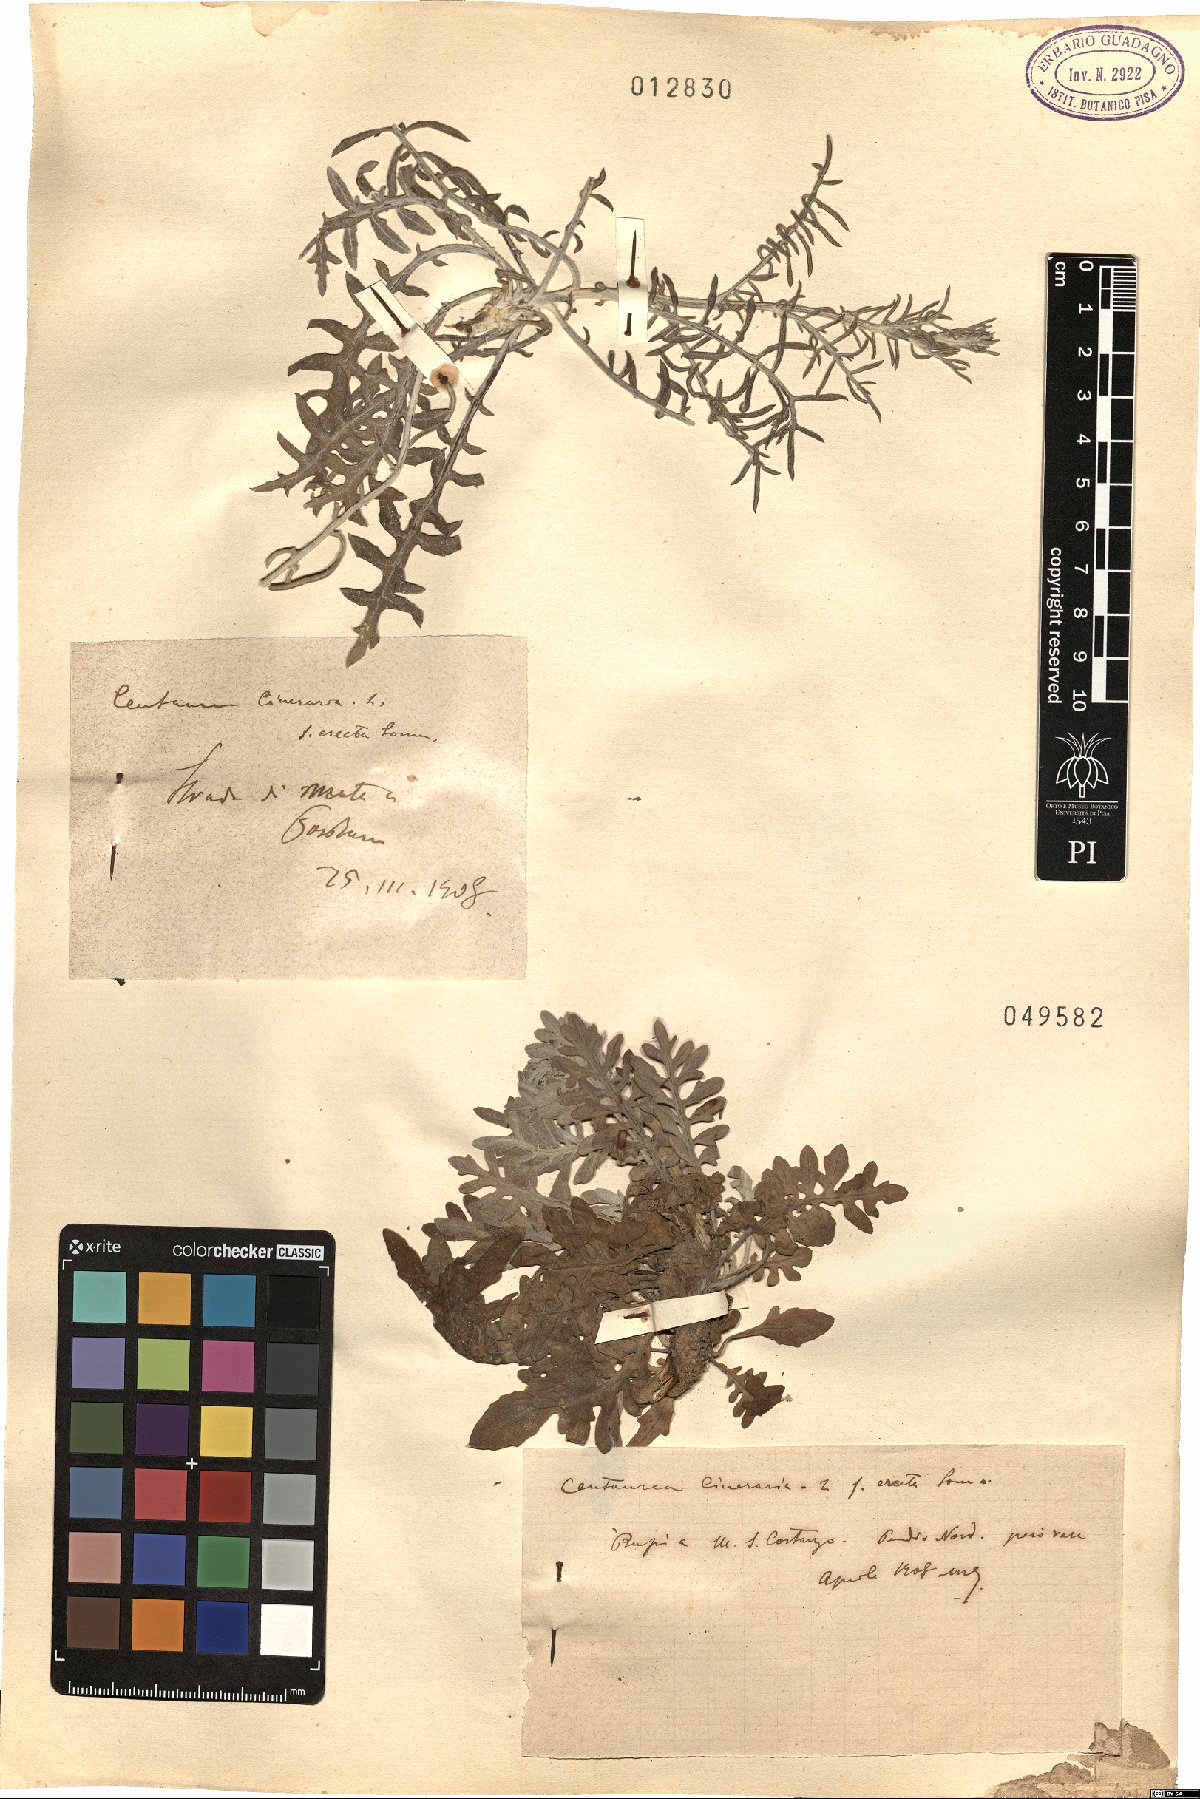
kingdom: Plantae
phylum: Tracheophyta
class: Magnoliopsida
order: Asterales
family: Asteraceae
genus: Centaurea
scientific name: Centaurea cineraria
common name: Dusty miller
